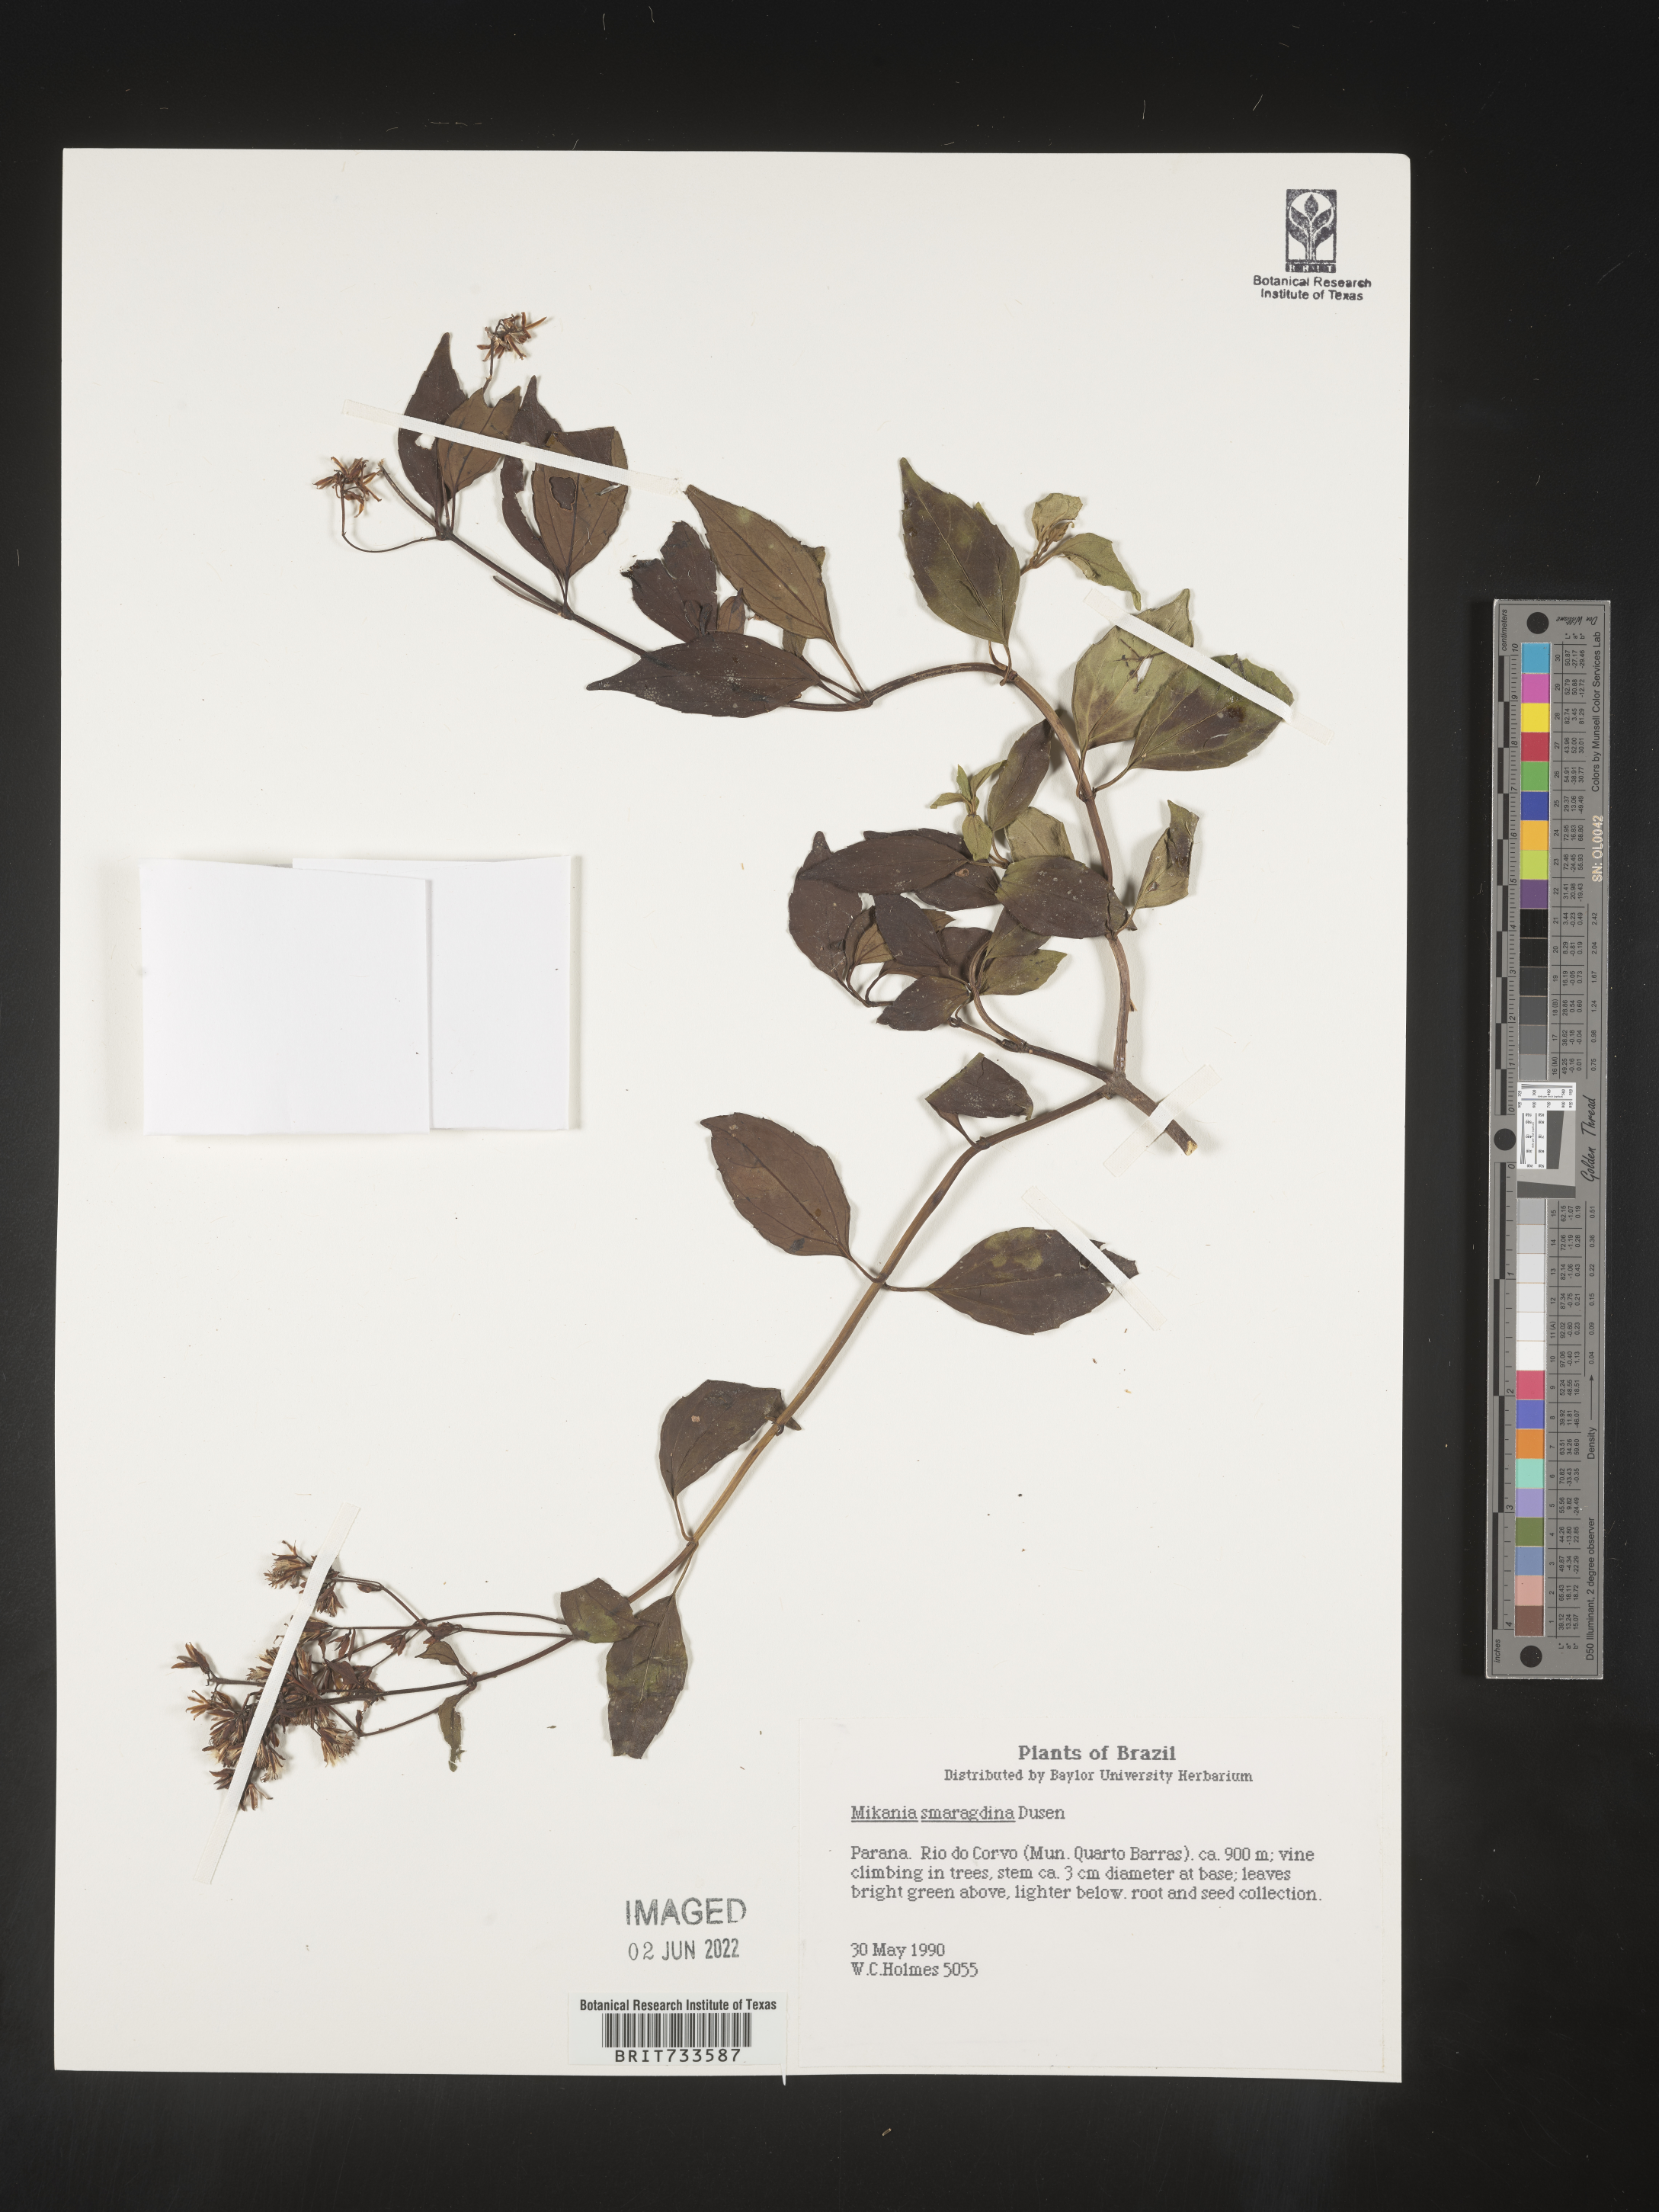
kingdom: Plantae
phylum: Tracheophyta
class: Magnoliopsida
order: Asterales
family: Asteraceae
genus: Mikania
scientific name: Mikania
